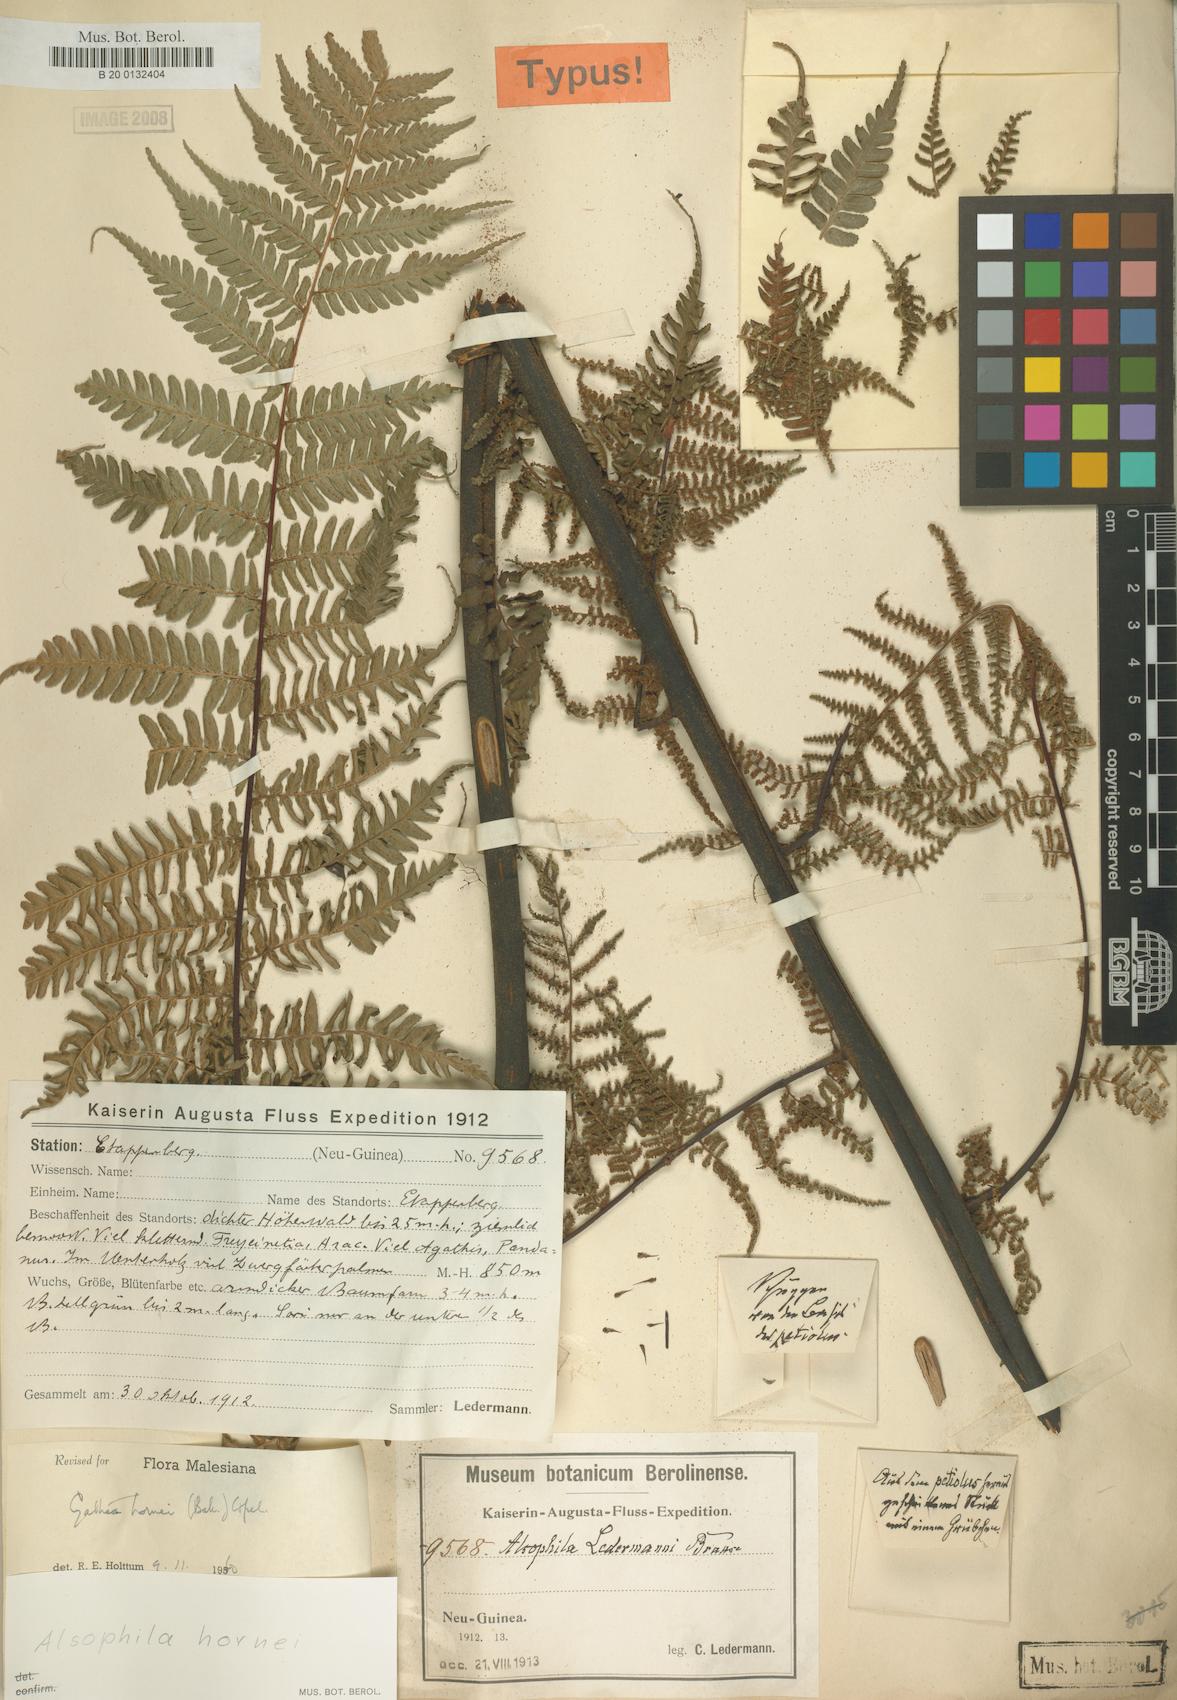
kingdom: Plantae
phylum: Tracheophyta
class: Polypodiopsida
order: Cyatheales
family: Cyatheaceae
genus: Gymnosphaera
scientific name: Gymnosphaera hornei
